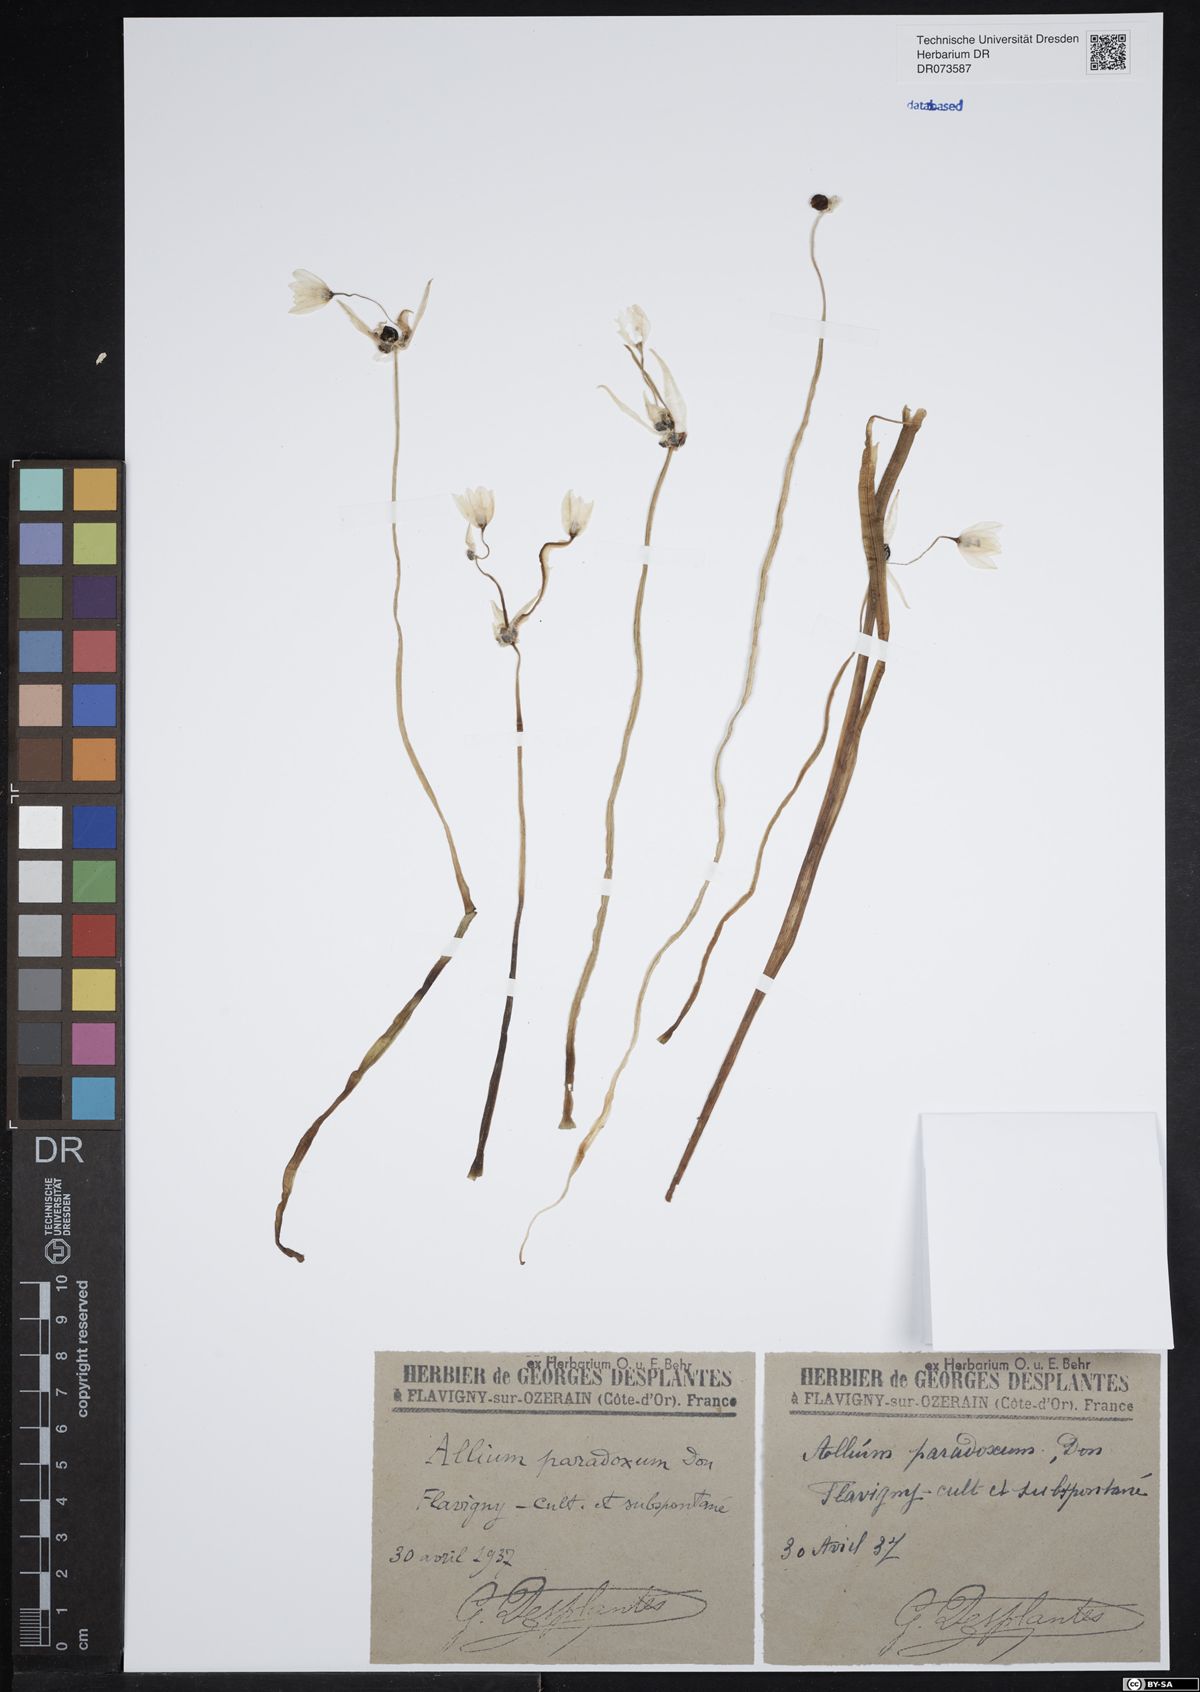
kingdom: Plantae
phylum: Tracheophyta
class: Liliopsida
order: Asparagales
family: Amaryllidaceae
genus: Allium
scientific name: Allium paradoxum
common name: Few-flowered garlic
